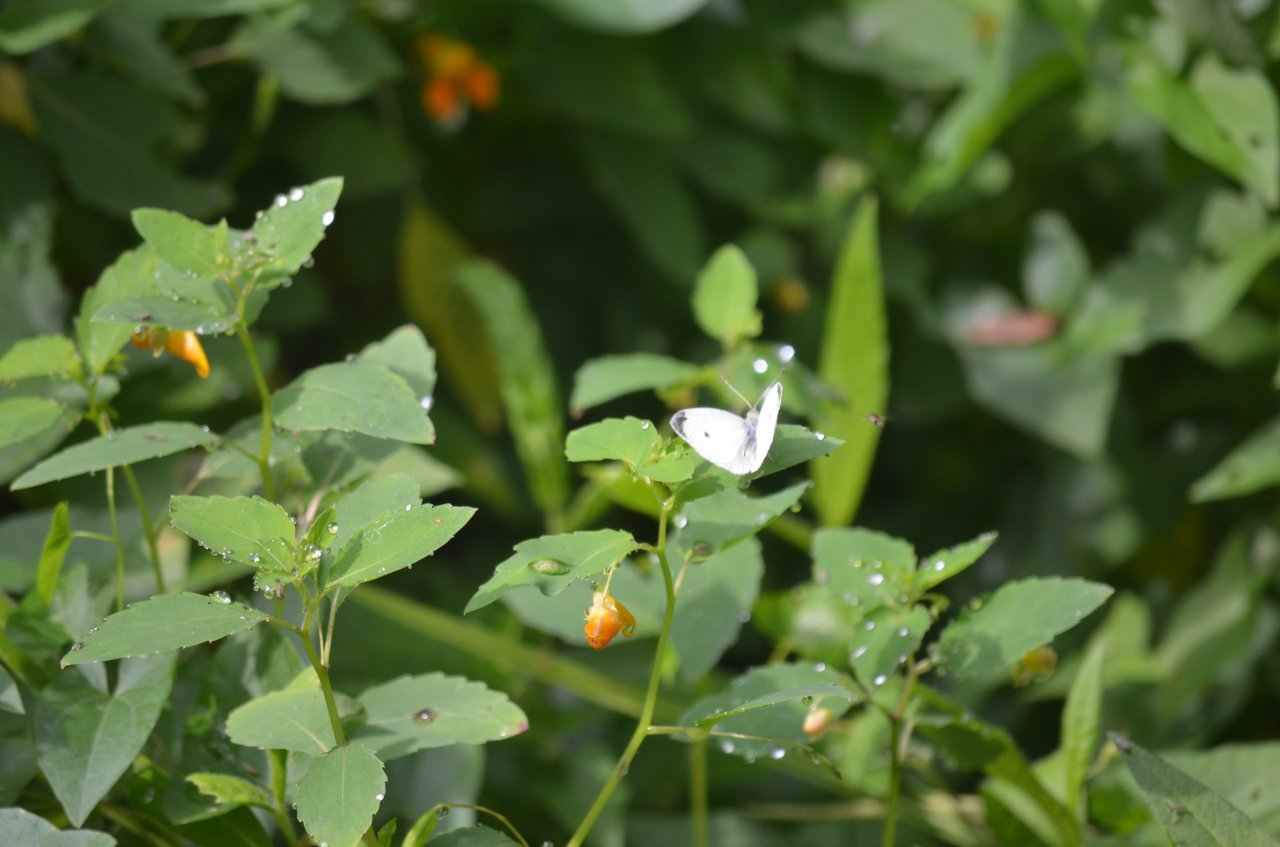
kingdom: Animalia
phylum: Arthropoda
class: Insecta
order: Lepidoptera
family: Pieridae
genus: Pieris
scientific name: Pieris rapae
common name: Cabbage White
